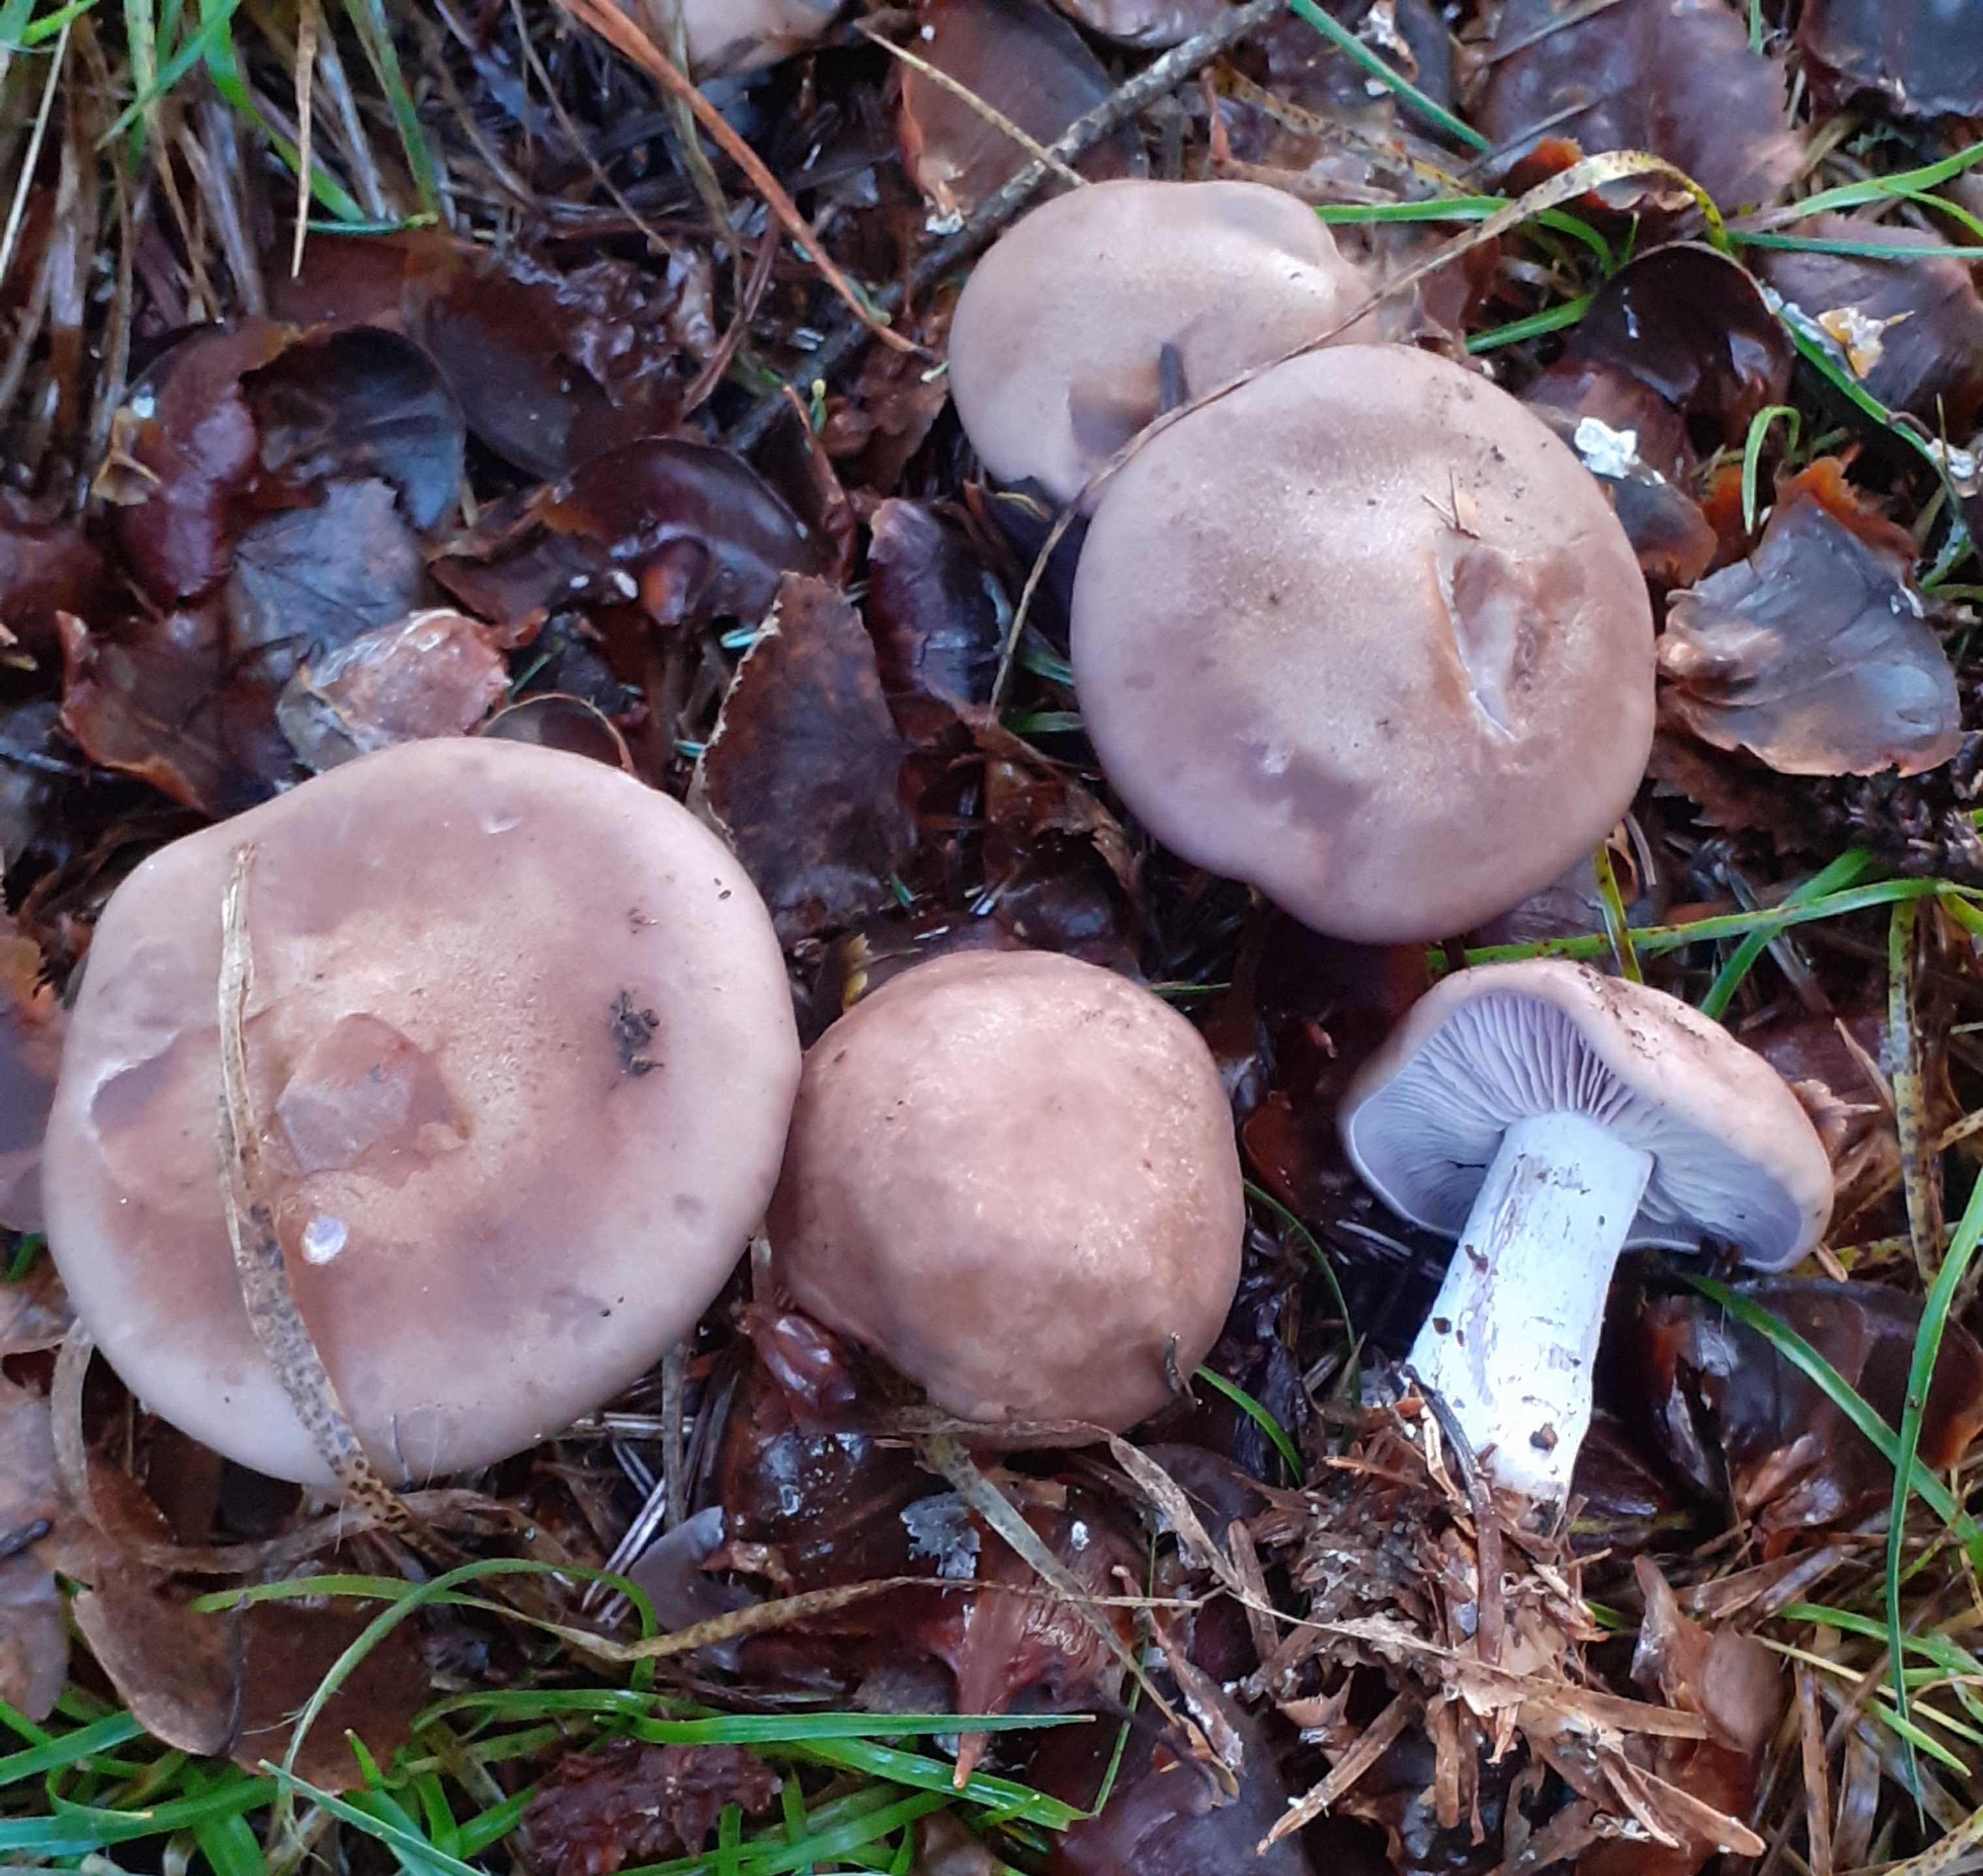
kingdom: Fungi
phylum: Basidiomycota
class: Agaricomycetes
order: Agaricales
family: Tricholomataceae
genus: Lepista
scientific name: Lepista nuda
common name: violet hekseringshat
